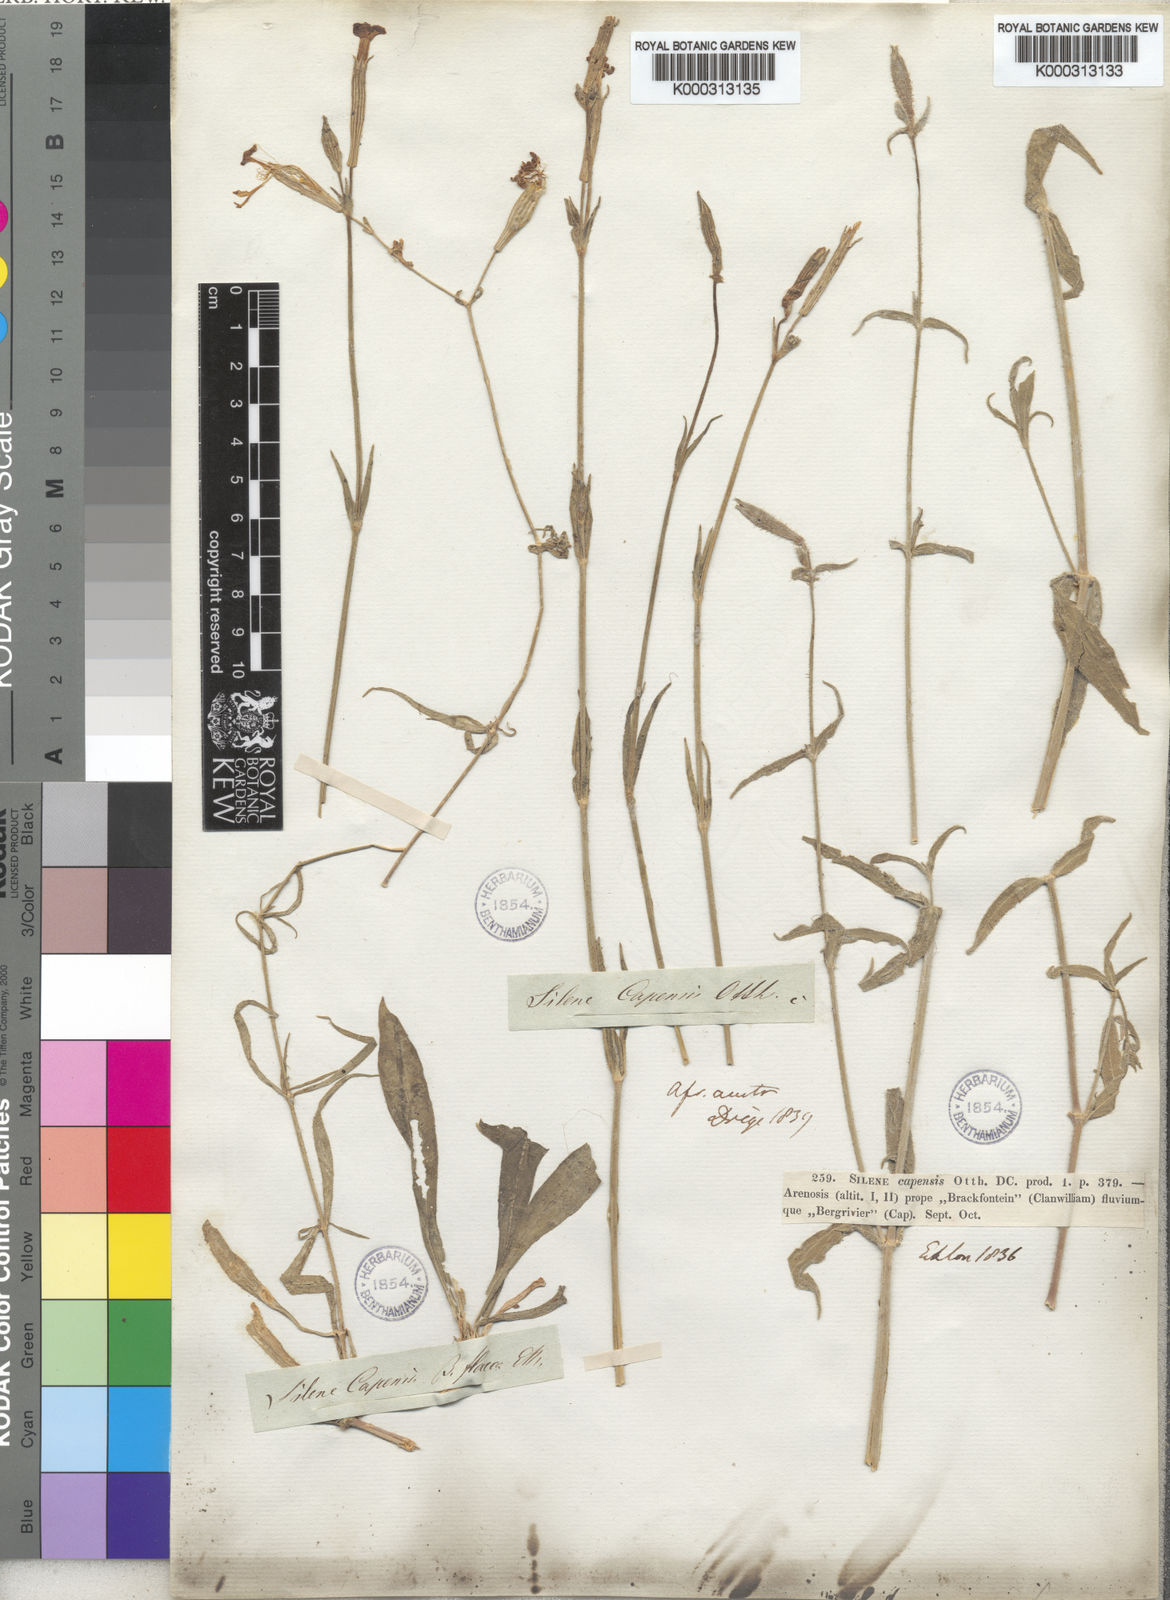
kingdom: Plantae
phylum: Tracheophyta
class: Magnoliopsida
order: Caryophyllales
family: Caryophyllaceae
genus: Silene
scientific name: Silene undulata
